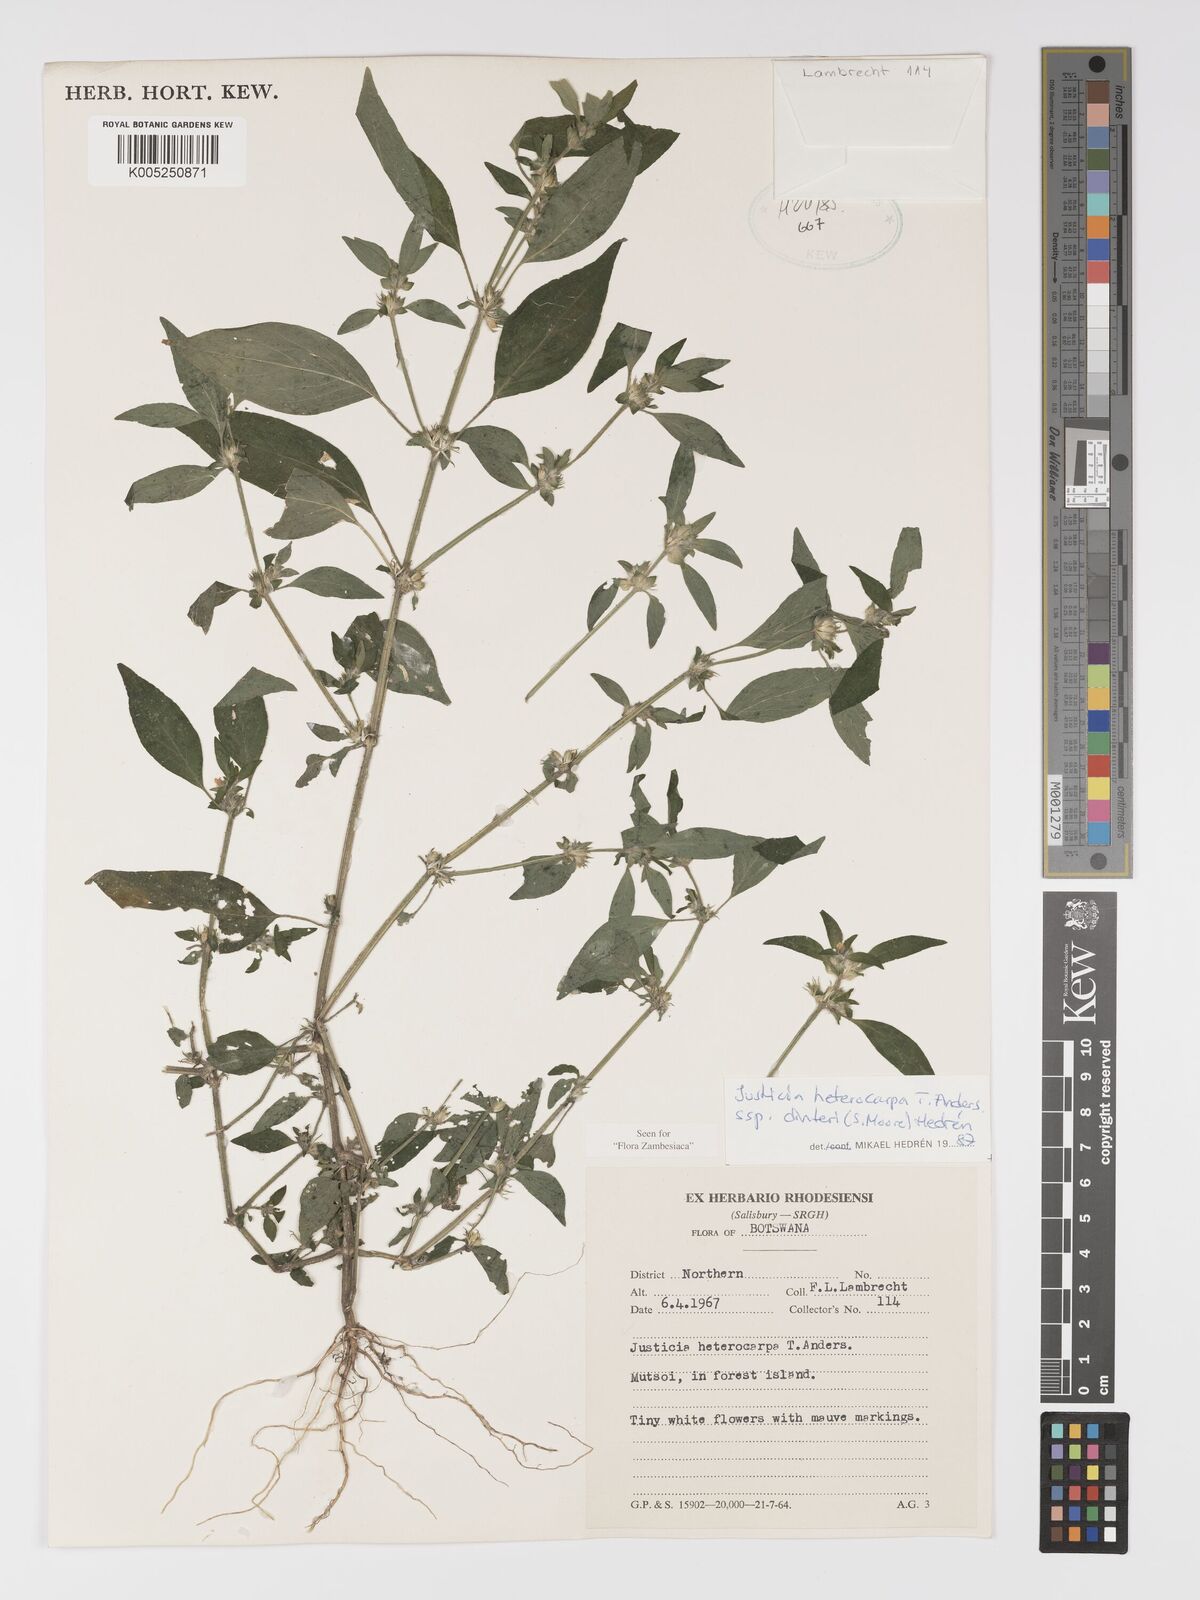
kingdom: Plantae
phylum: Tracheophyta
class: Magnoliopsida
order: Lamiales
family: Acanthaceae
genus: Justicia
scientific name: Justicia heterocarpa
